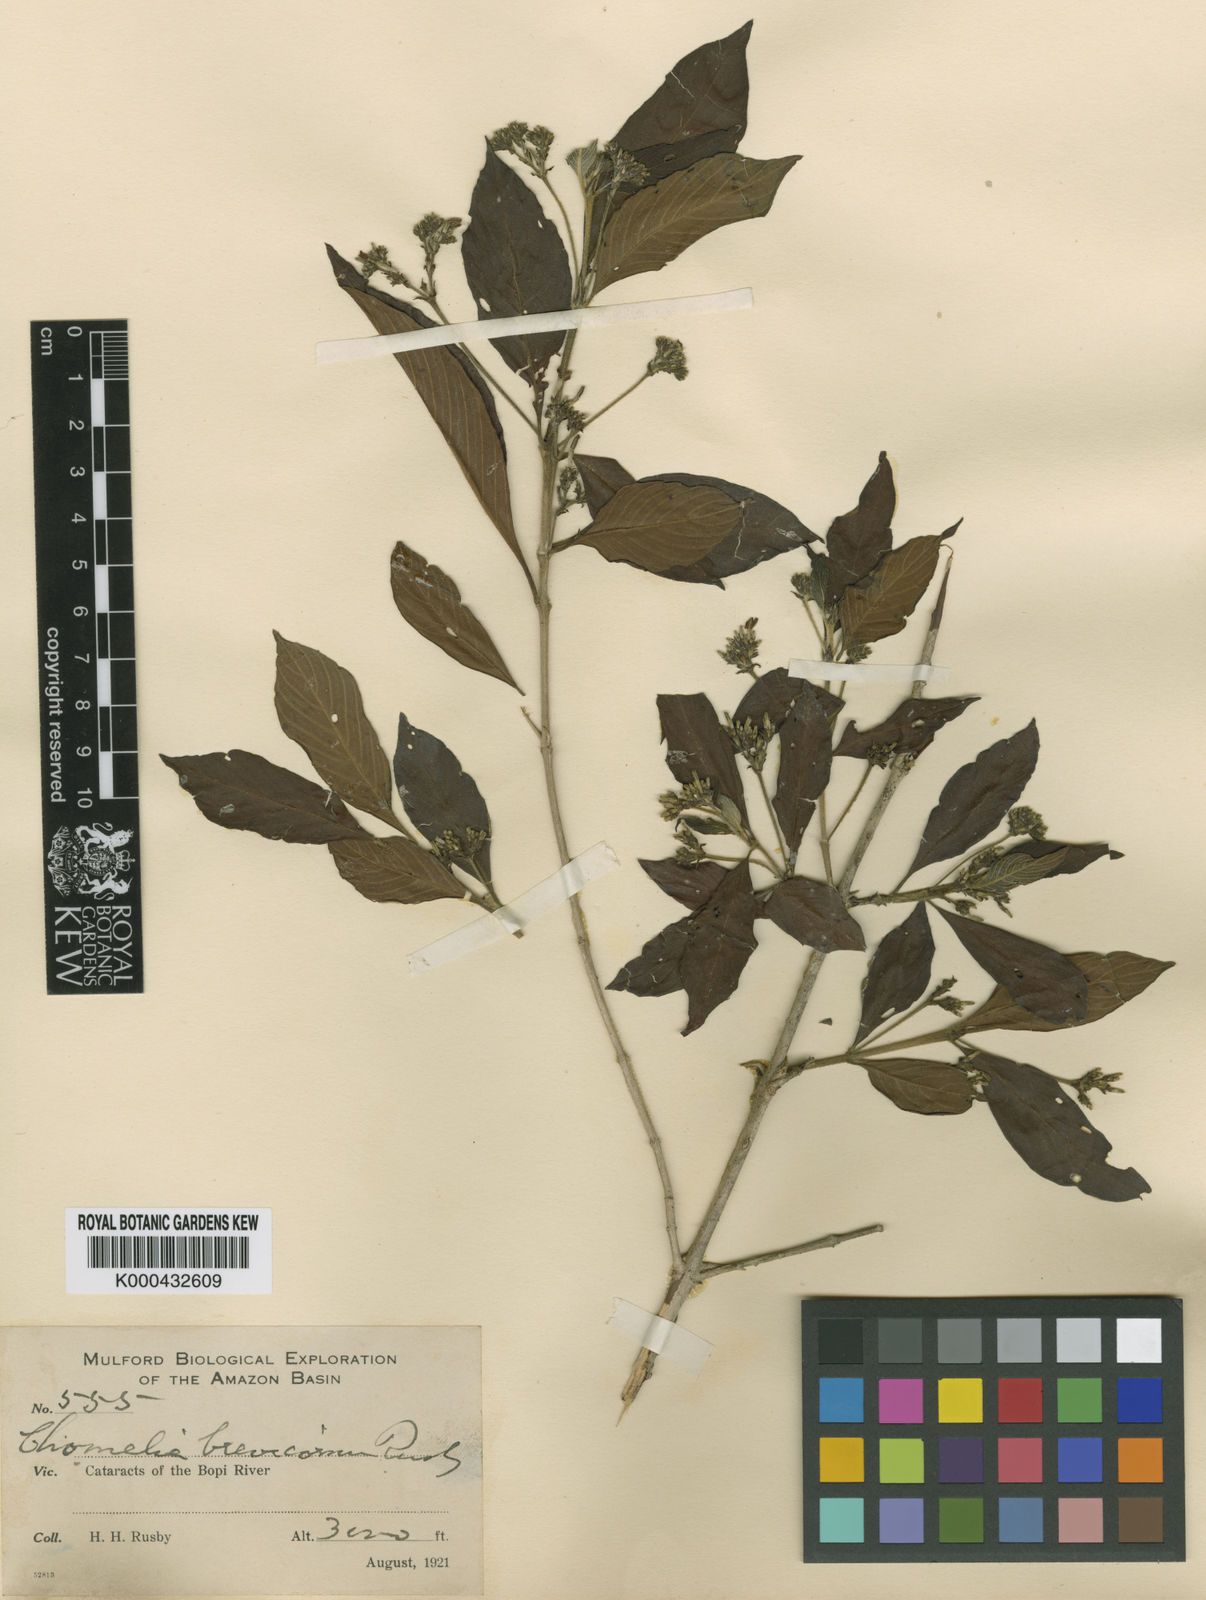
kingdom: Plantae
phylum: Tracheophyta
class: Magnoliopsida
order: Gentianales
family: Rubiaceae
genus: Chomelia
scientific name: Chomelia brevicornu
